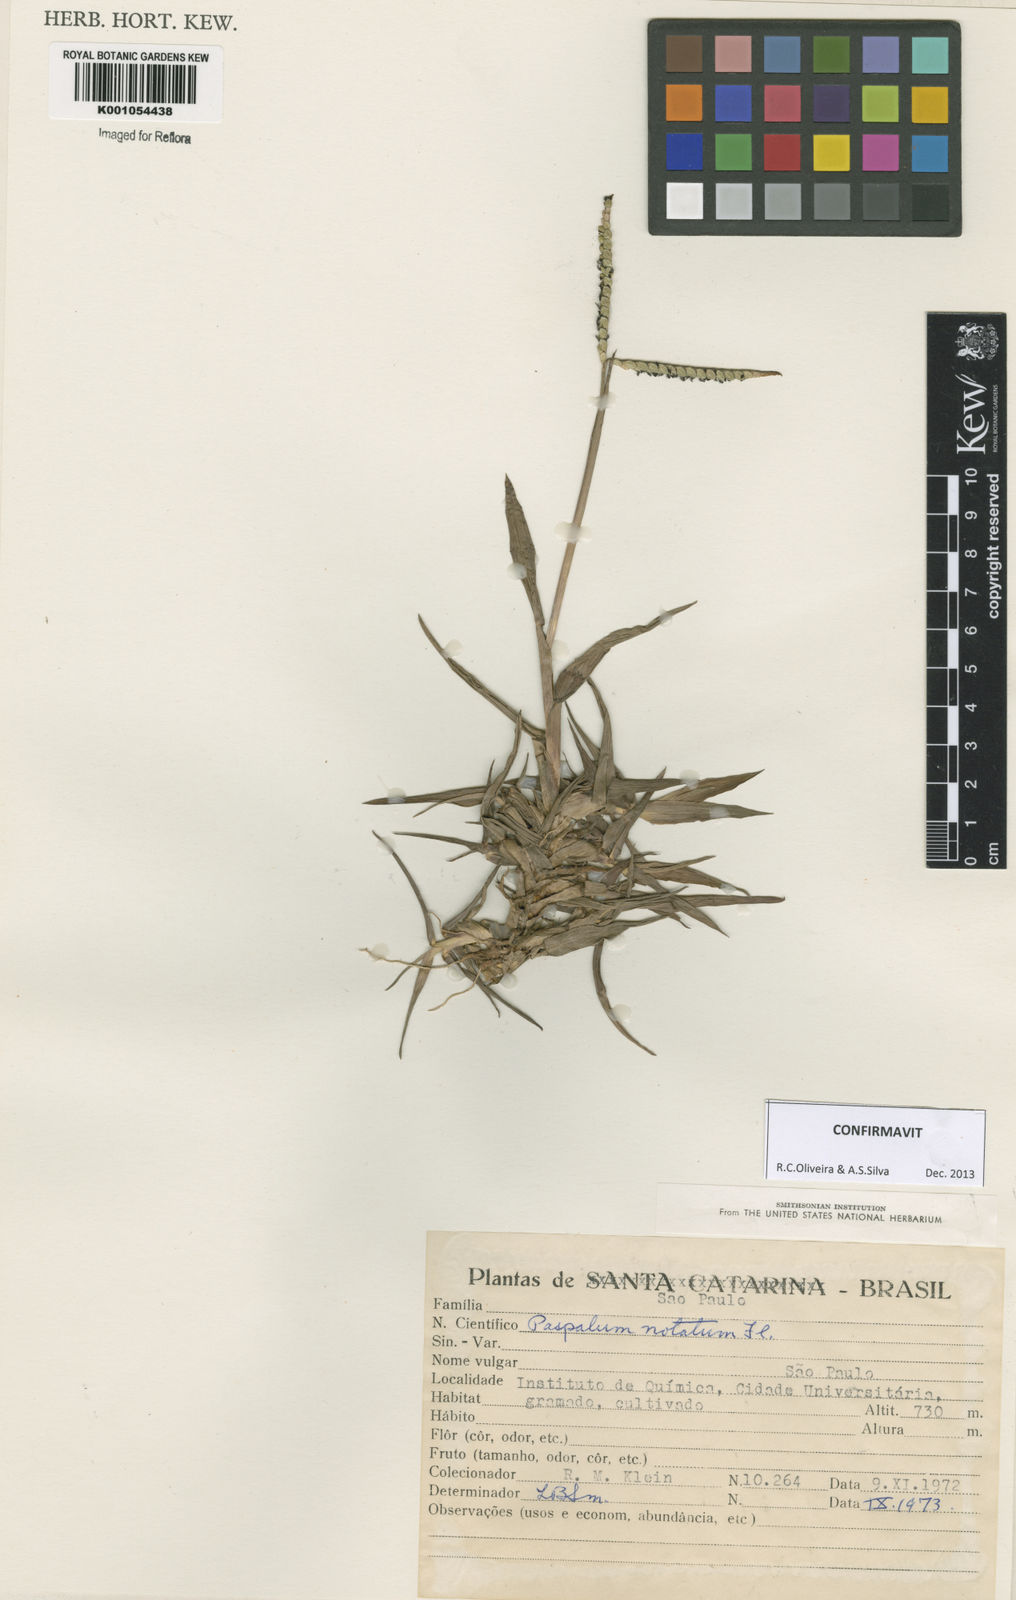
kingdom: Plantae
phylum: Tracheophyta
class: Liliopsida
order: Poales
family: Poaceae
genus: Paspalum
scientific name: Paspalum
